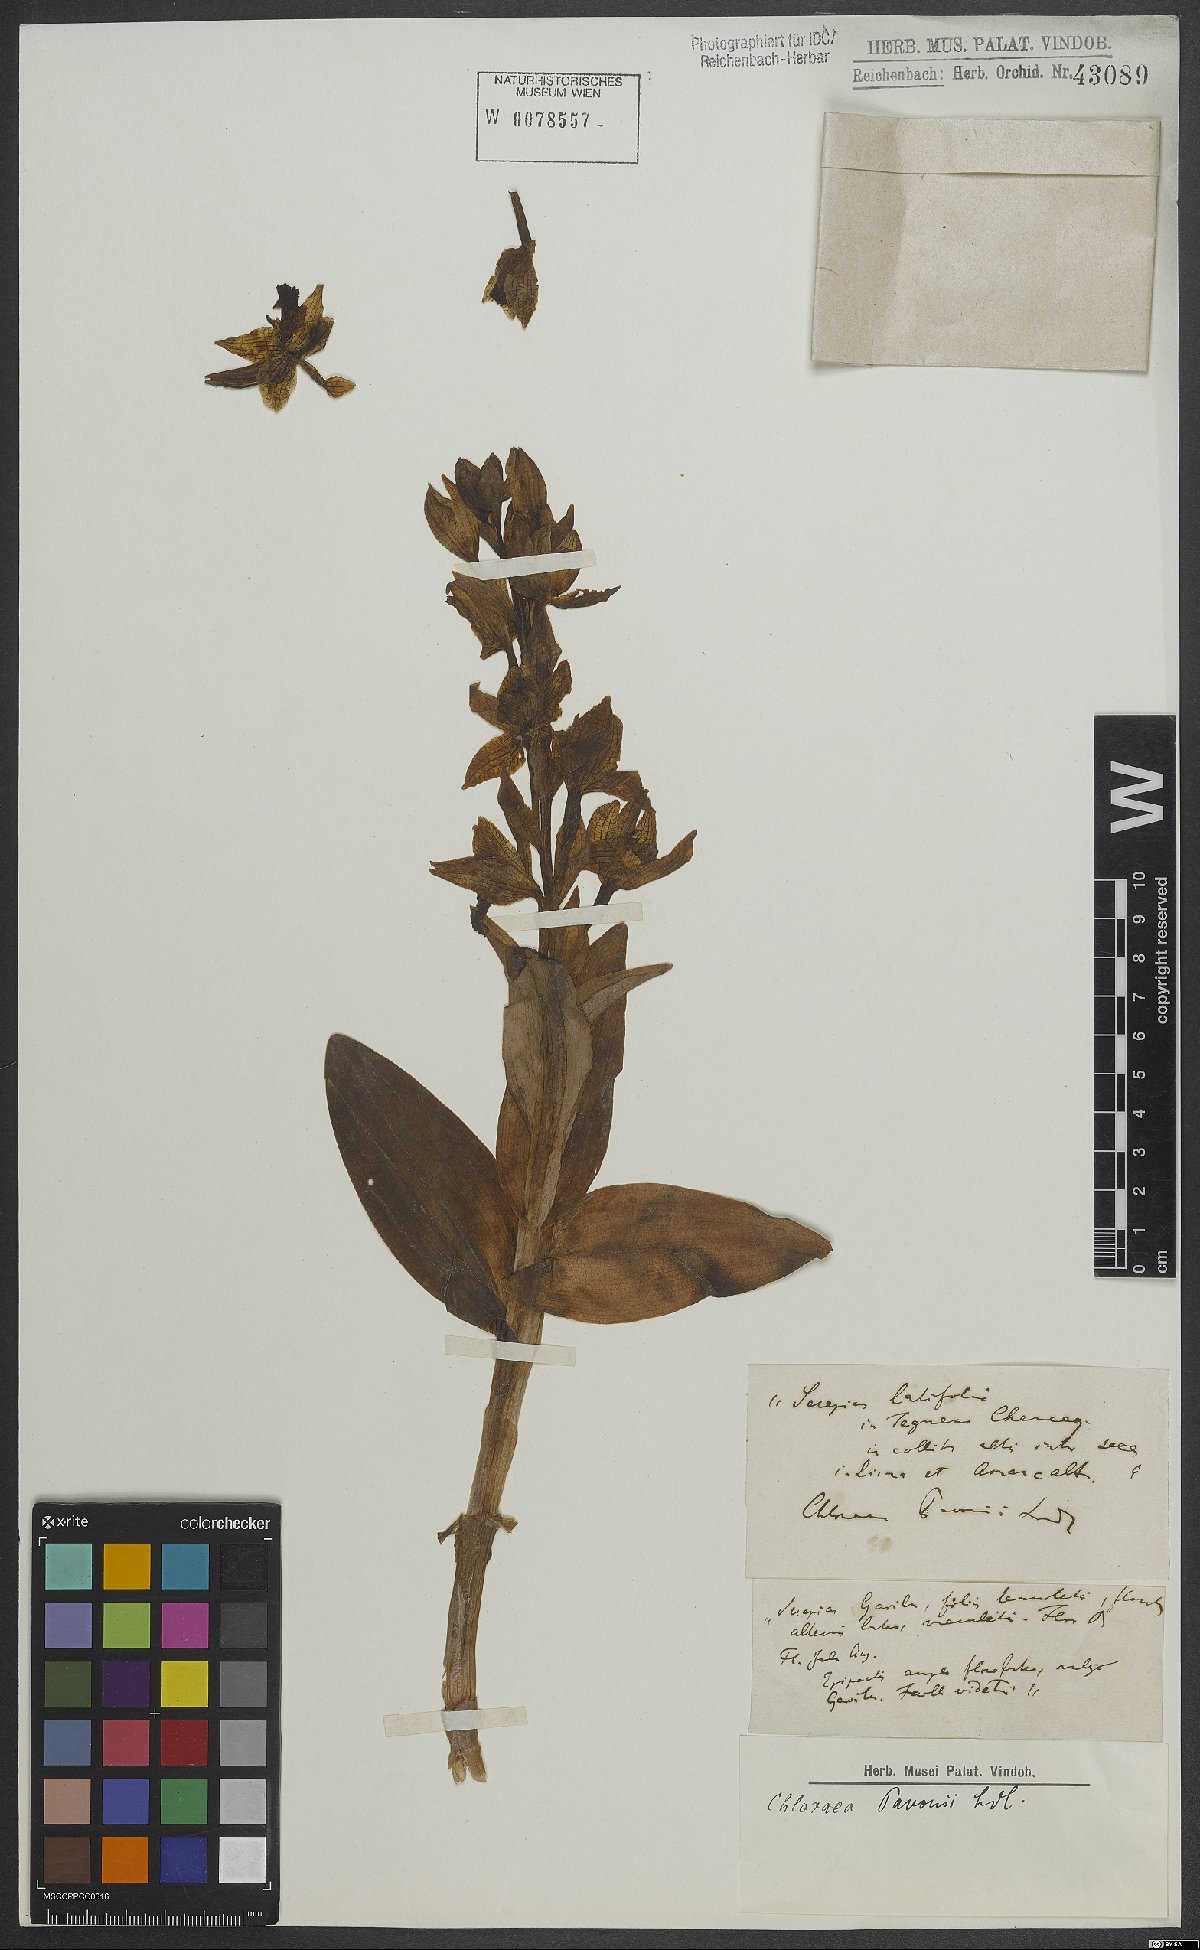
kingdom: Plantae
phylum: Tracheophyta
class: Liliopsida
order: Asparagales
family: Orchidaceae
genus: Chloraea
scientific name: Chloraea pavonii
